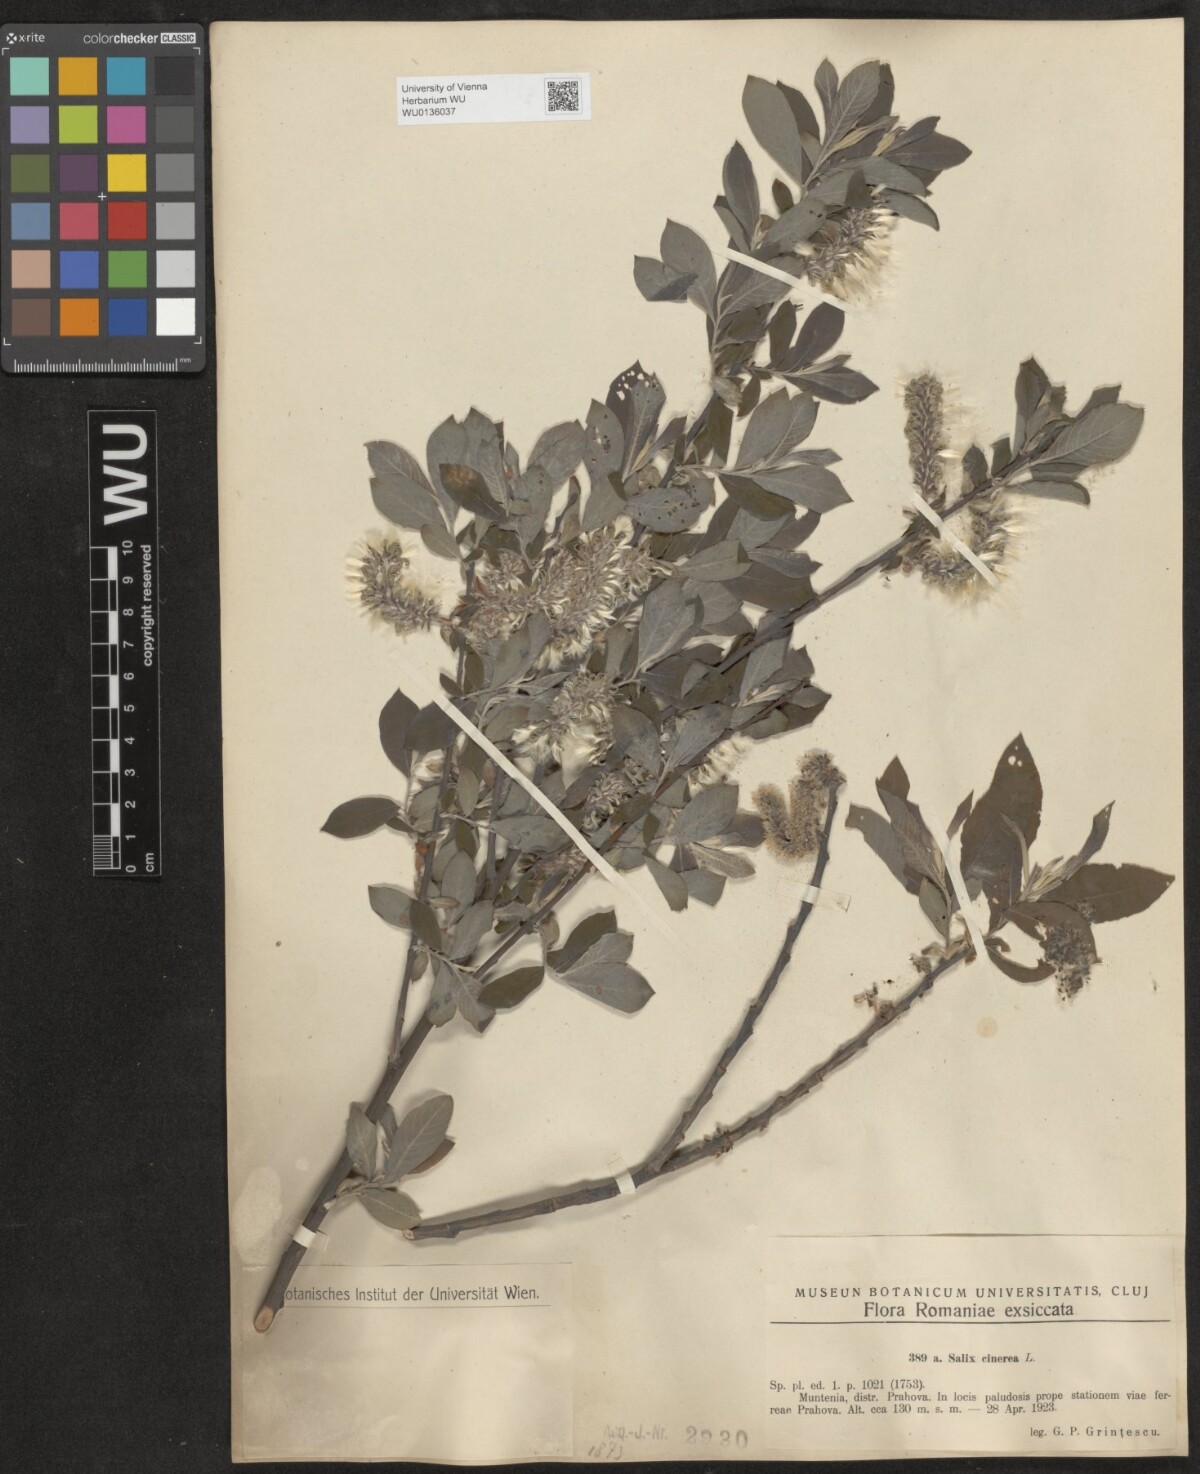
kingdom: Plantae
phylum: Tracheophyta
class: Magnoliopsida
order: Malpighiales
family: Salicaceae
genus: Salix
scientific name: Salix cinerea
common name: Common sallow
